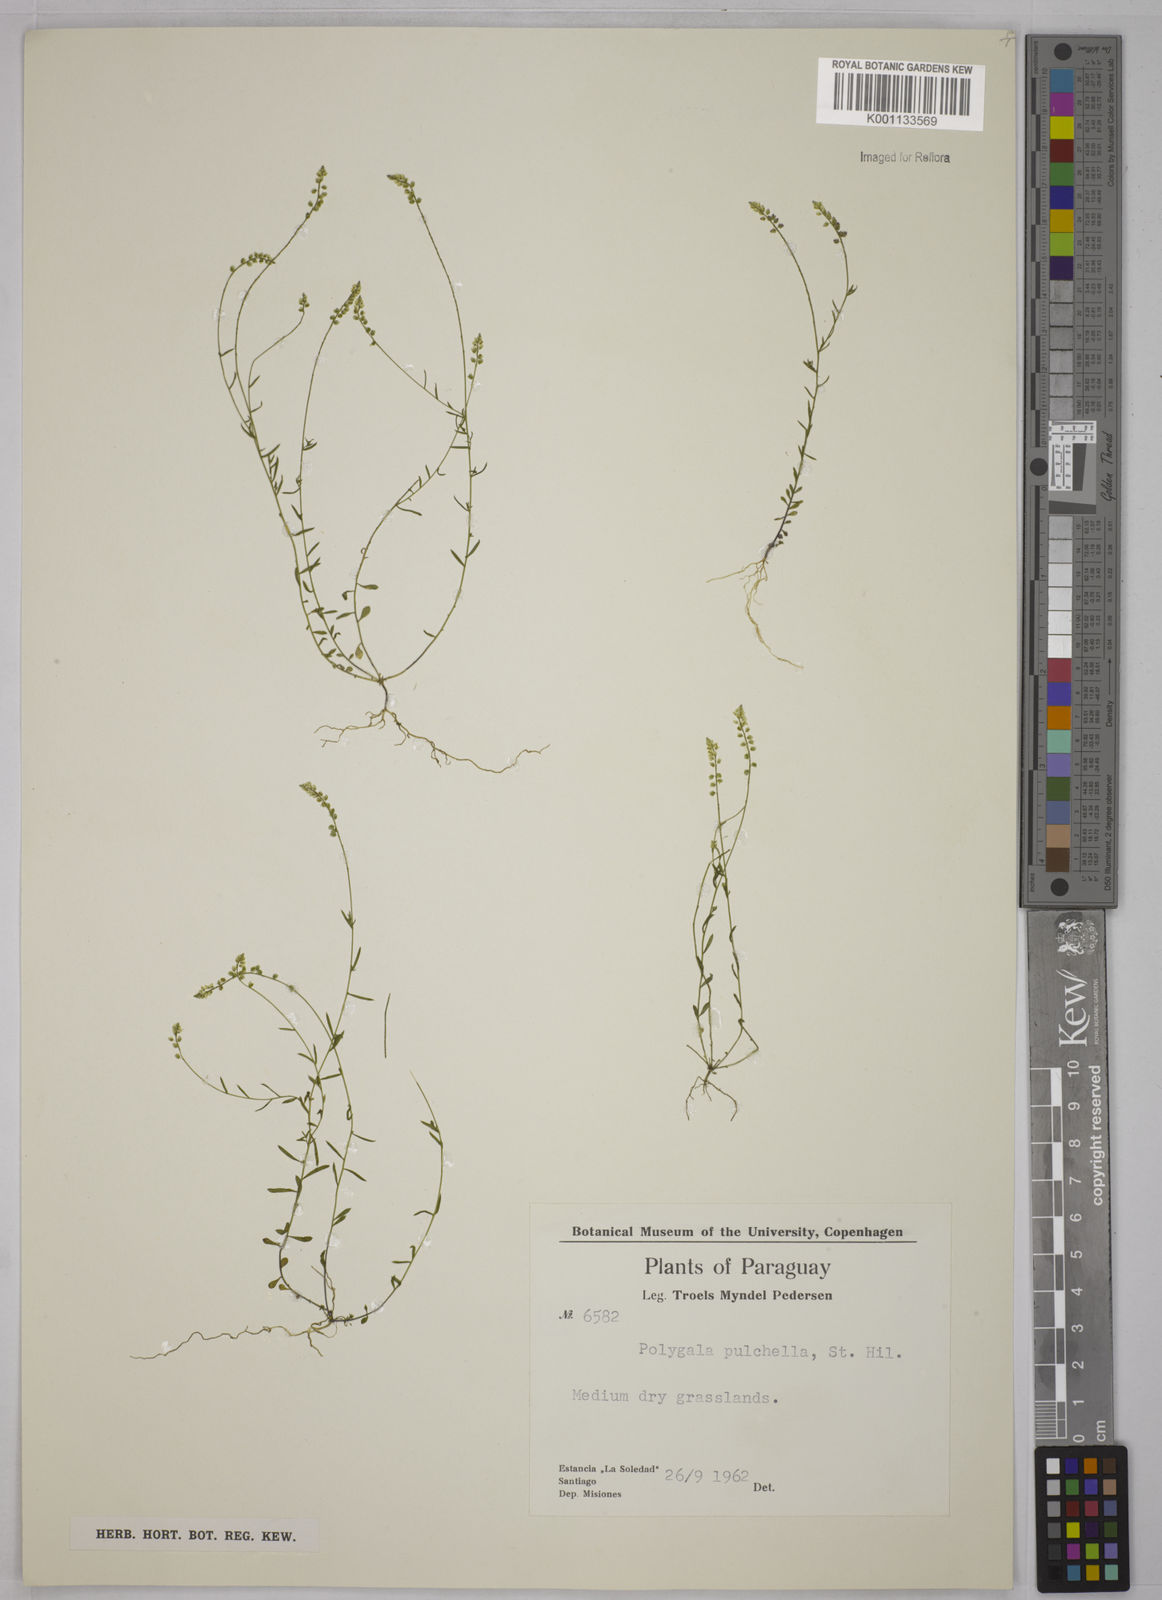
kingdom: Plantae
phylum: Tracheophyta
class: Magnoliopsida
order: Fabales
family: Polygalaceae
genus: Polygala
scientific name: Polygala pulchella
